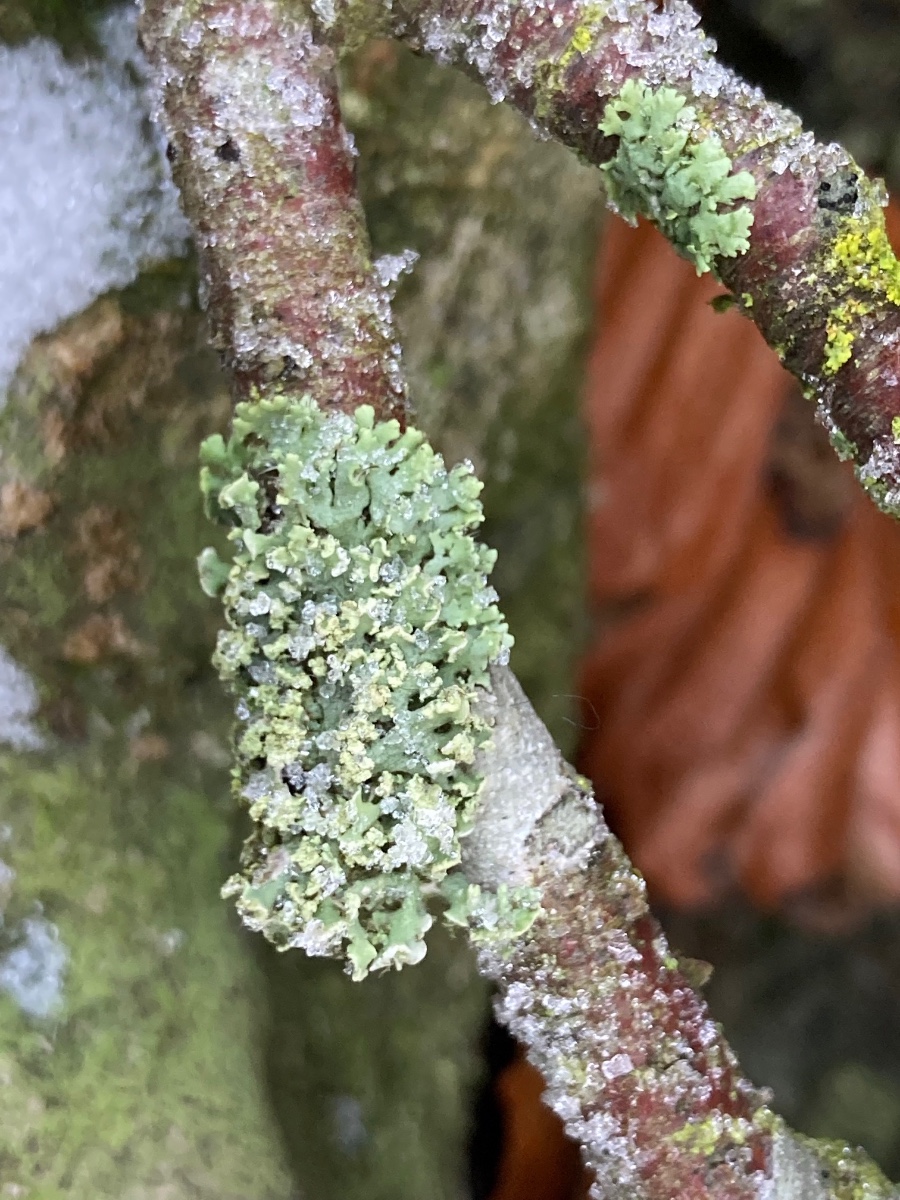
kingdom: Fungi
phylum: Ascomycota
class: Lecanoromycetes
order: Caliciales
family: Physciaceae
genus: Physcia
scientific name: Physcia tenella
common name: spæd rosetlav
